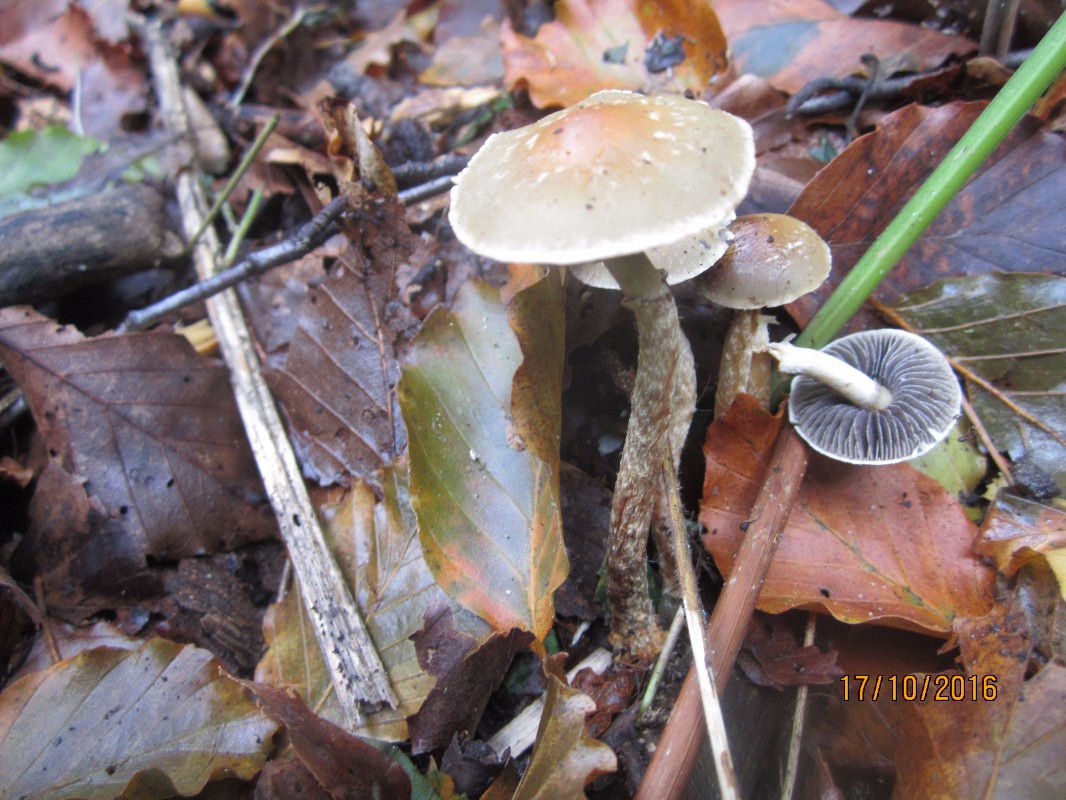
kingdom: Fungi
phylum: Basidiomycota
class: Agaricomycetes
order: Agaricales
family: Strophariaceae
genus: Leratiomyces
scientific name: Leratiomyces squamosus
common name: skællet bredblad
